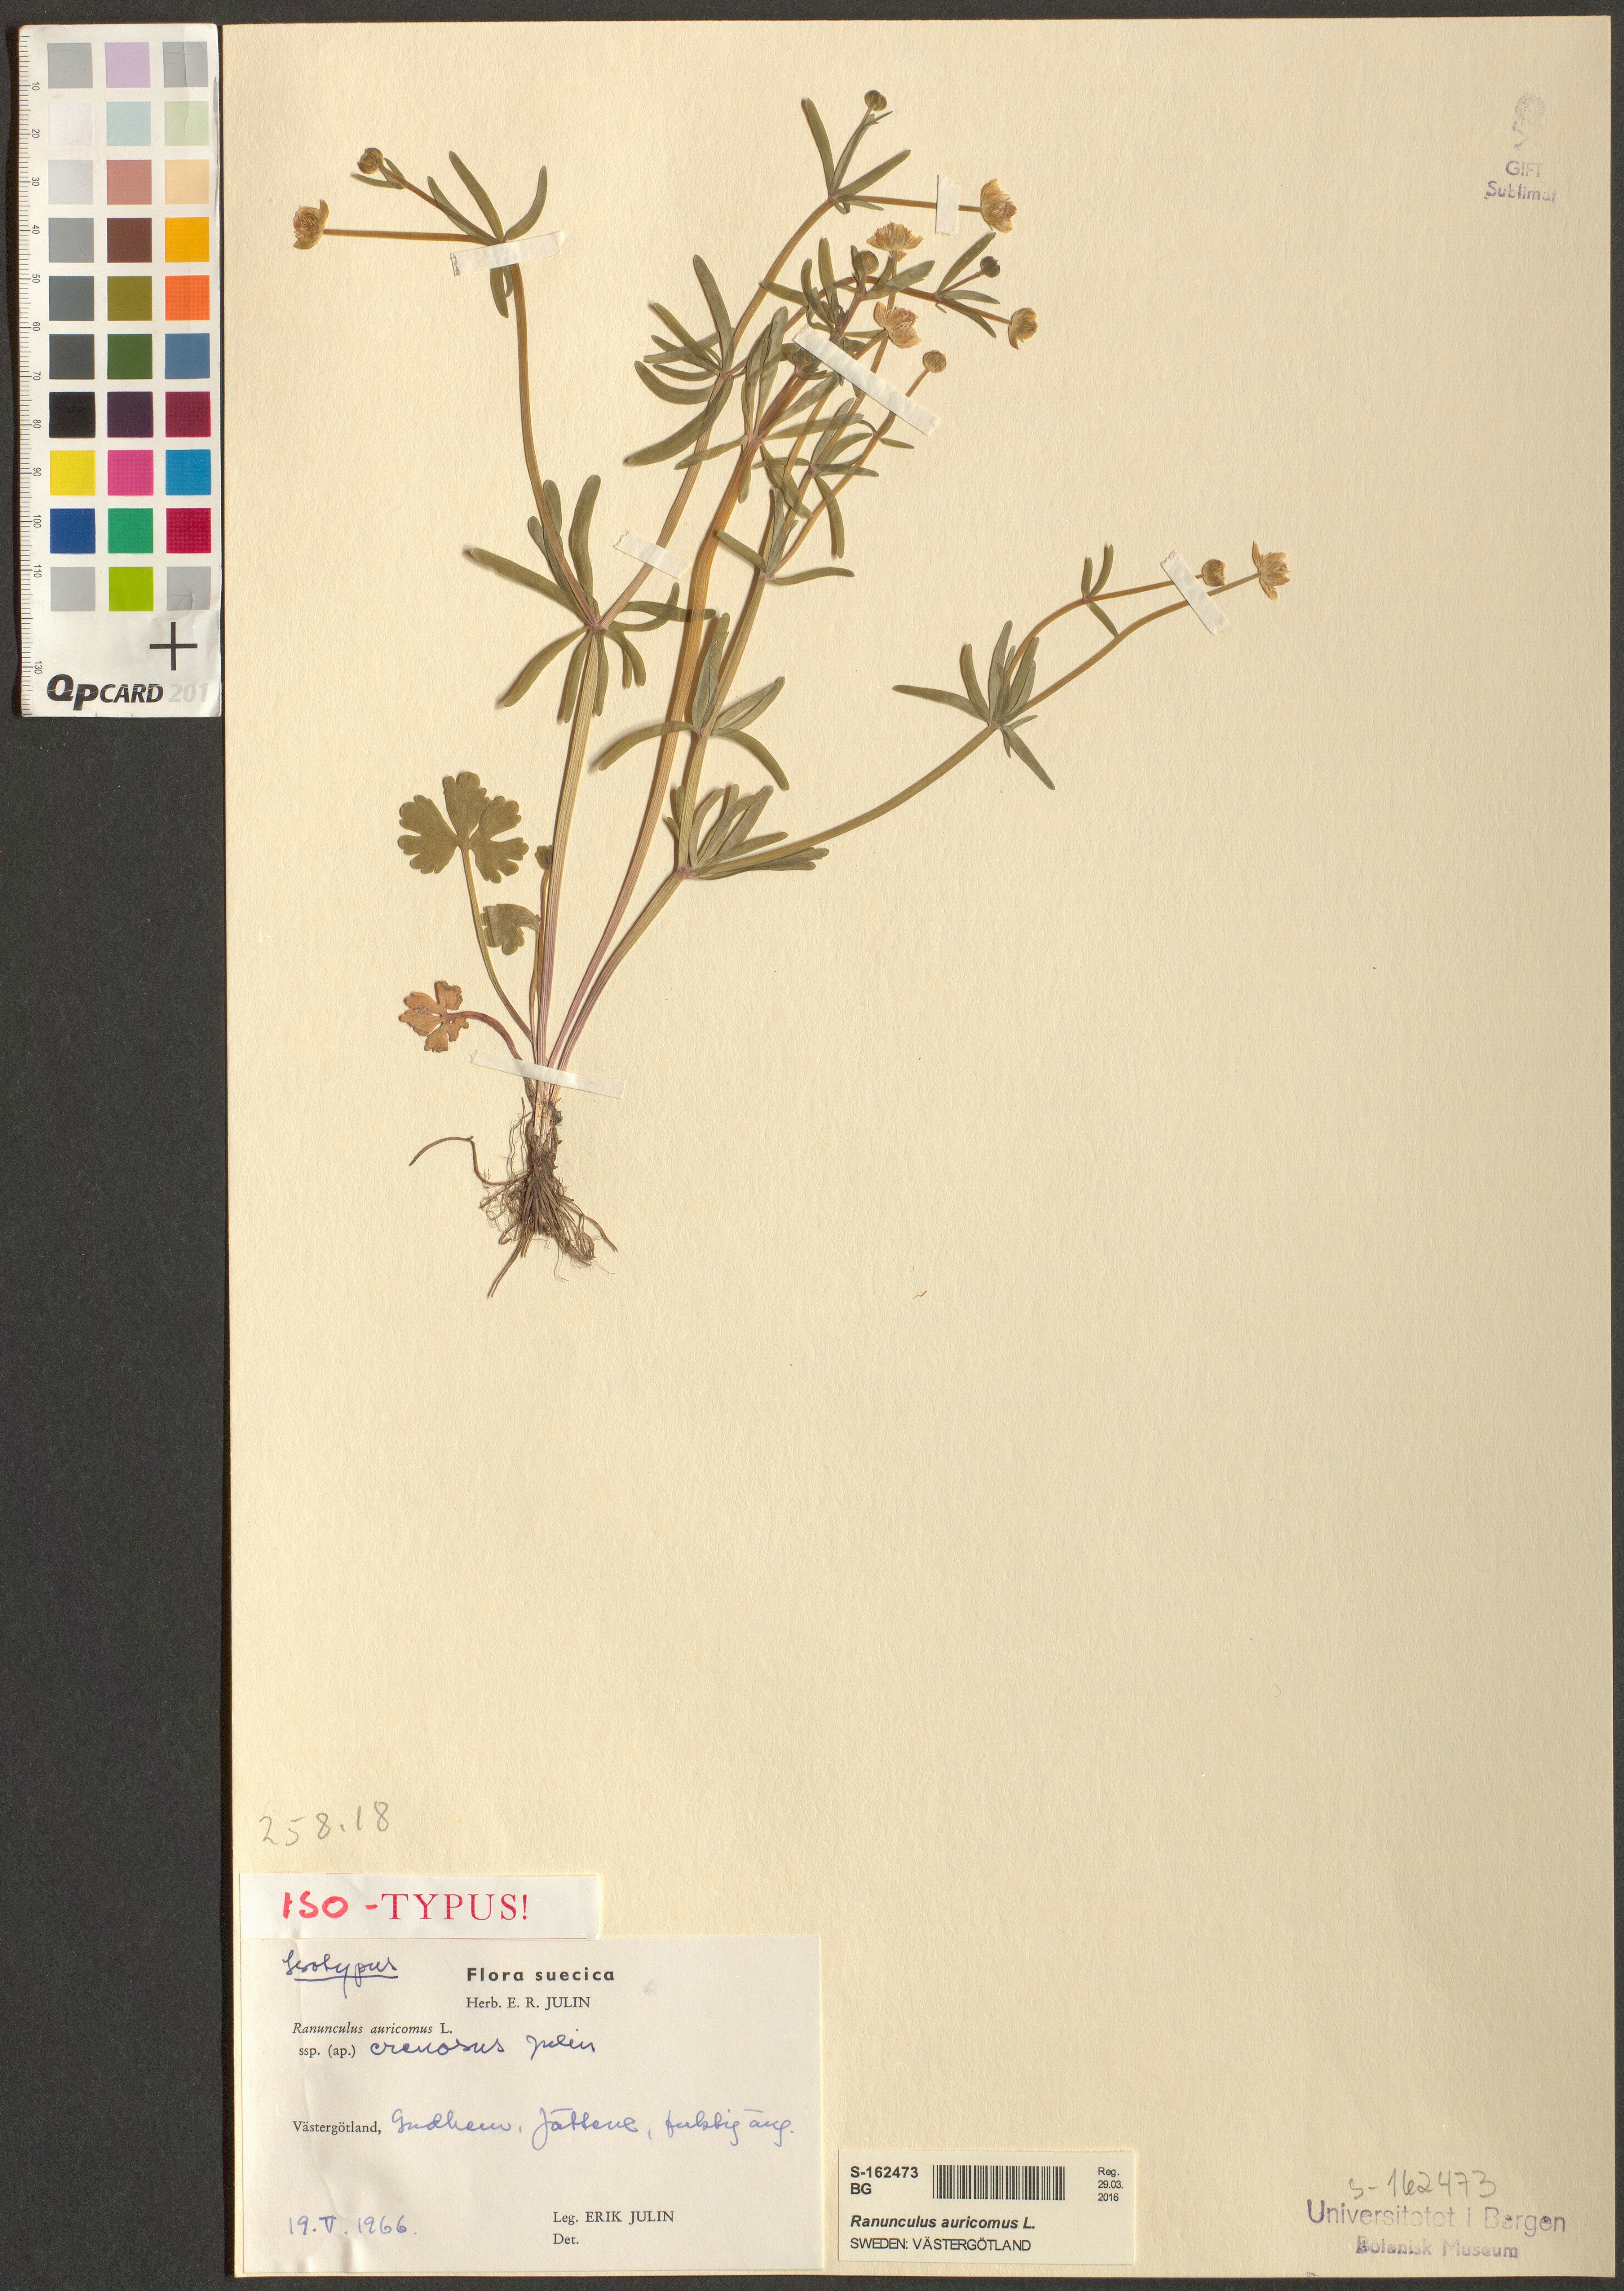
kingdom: Plantae
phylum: Tracheophyta
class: Magnoliopsida
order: Ranunculales
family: Ranunculaceae
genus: Ranunculus
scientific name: Ranunculus auricomus
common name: Goldilocks buttercup
